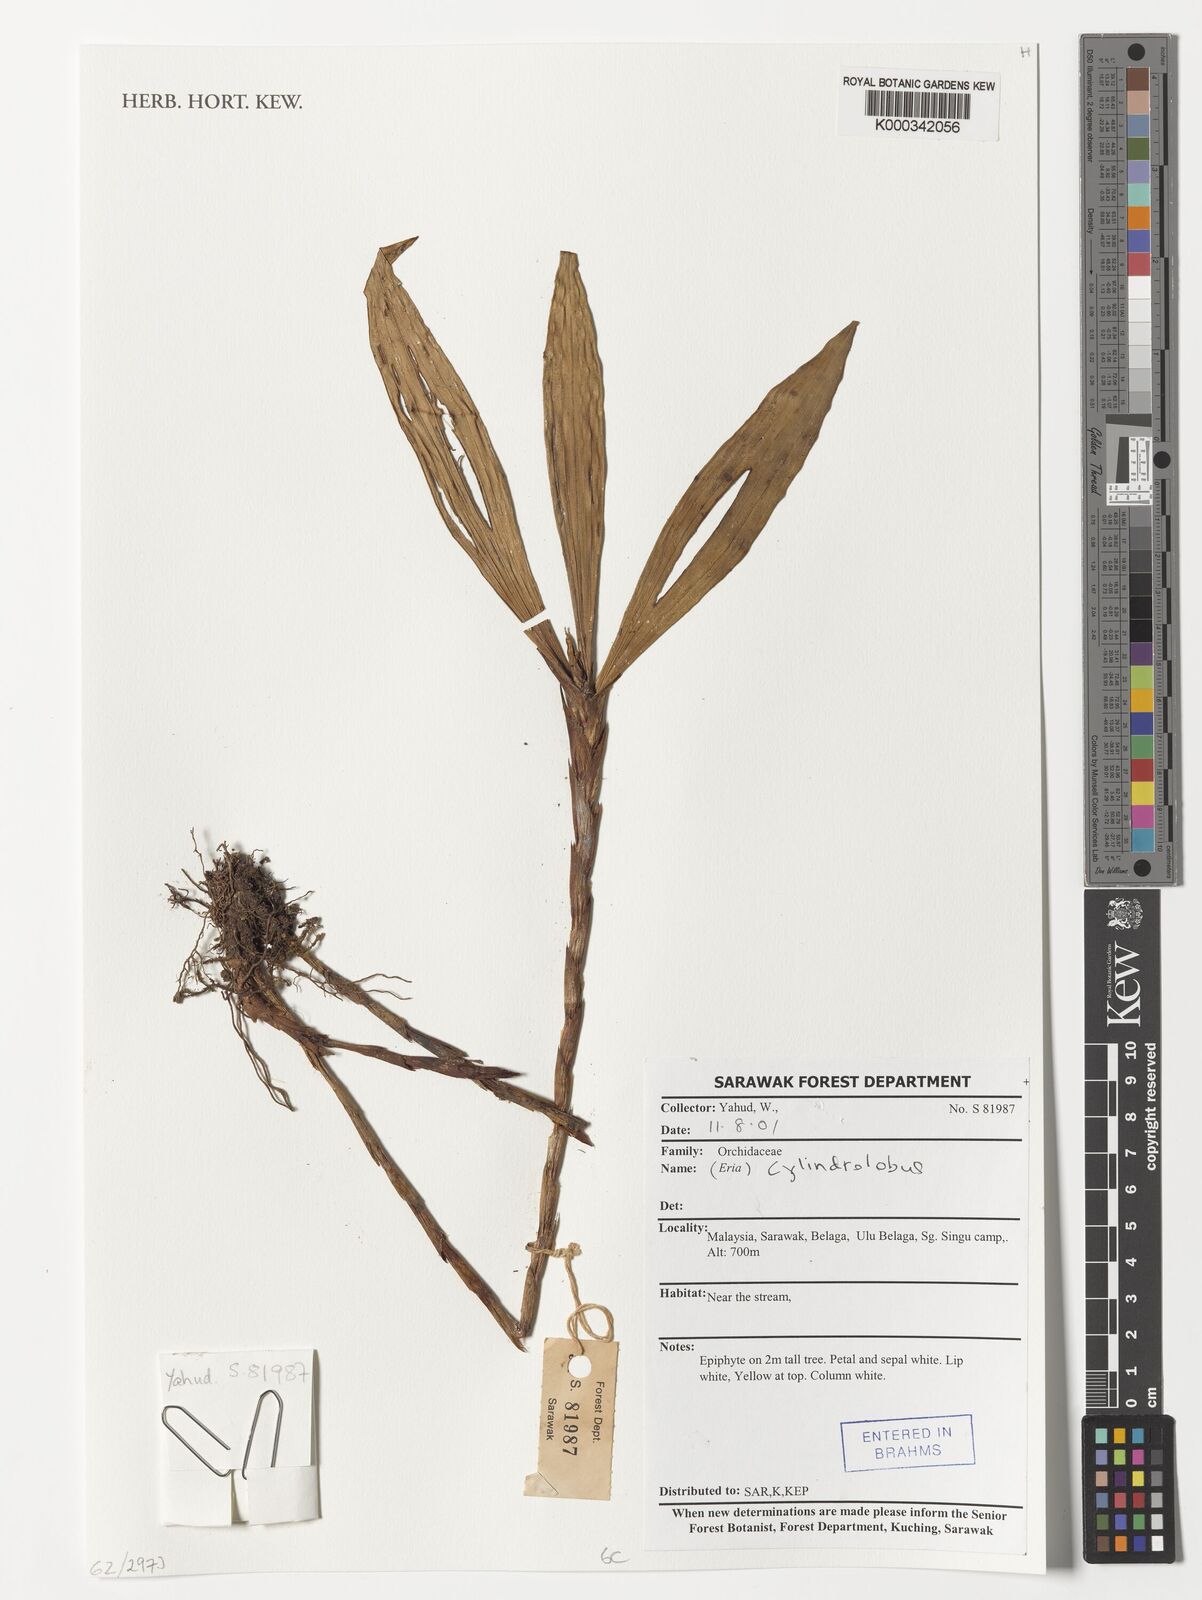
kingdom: Plantae
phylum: Tracheophyta
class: Liliopsida
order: Asparagales
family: Orchidaceae
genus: Cylindrolobus
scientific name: Cylindrolobus
